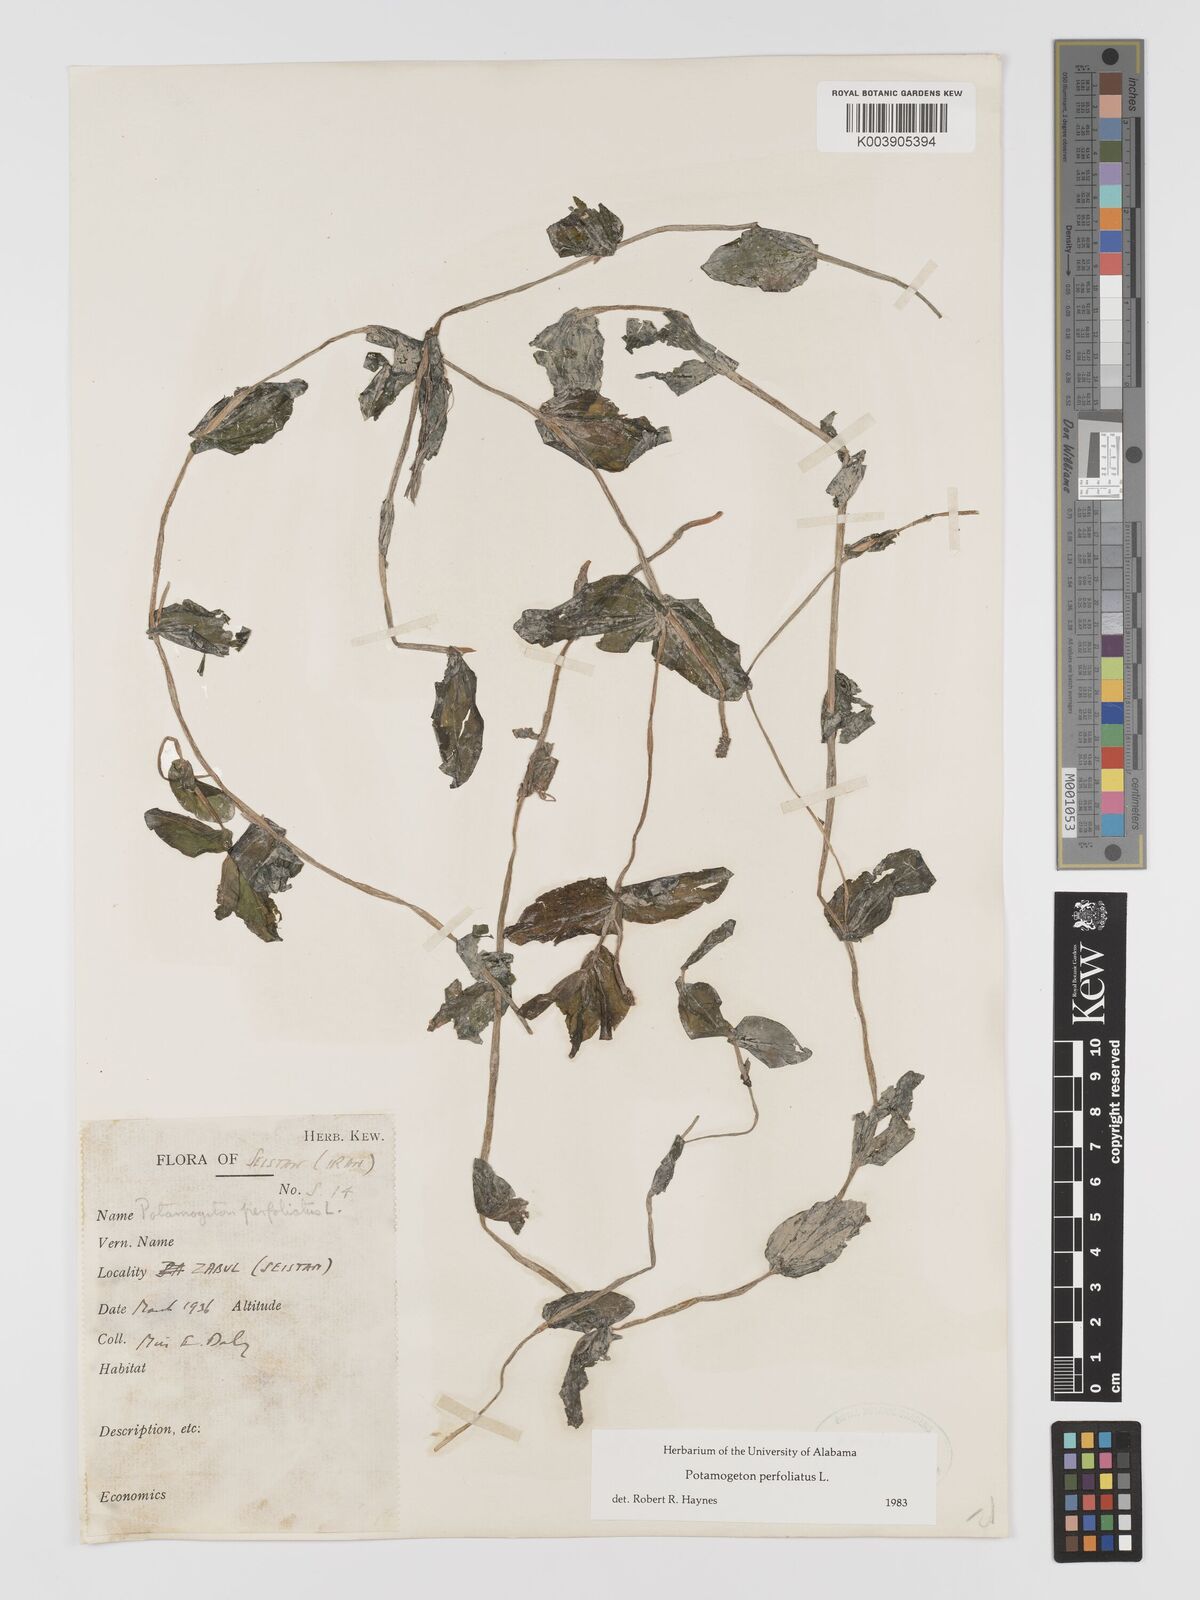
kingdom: Plantae
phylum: Tracheophyta
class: Liliopsida
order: Alismatales
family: Potamogetonaceae
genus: Potamogeton
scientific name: Potamogeton perfoliatus
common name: Perfoliate pondweed
